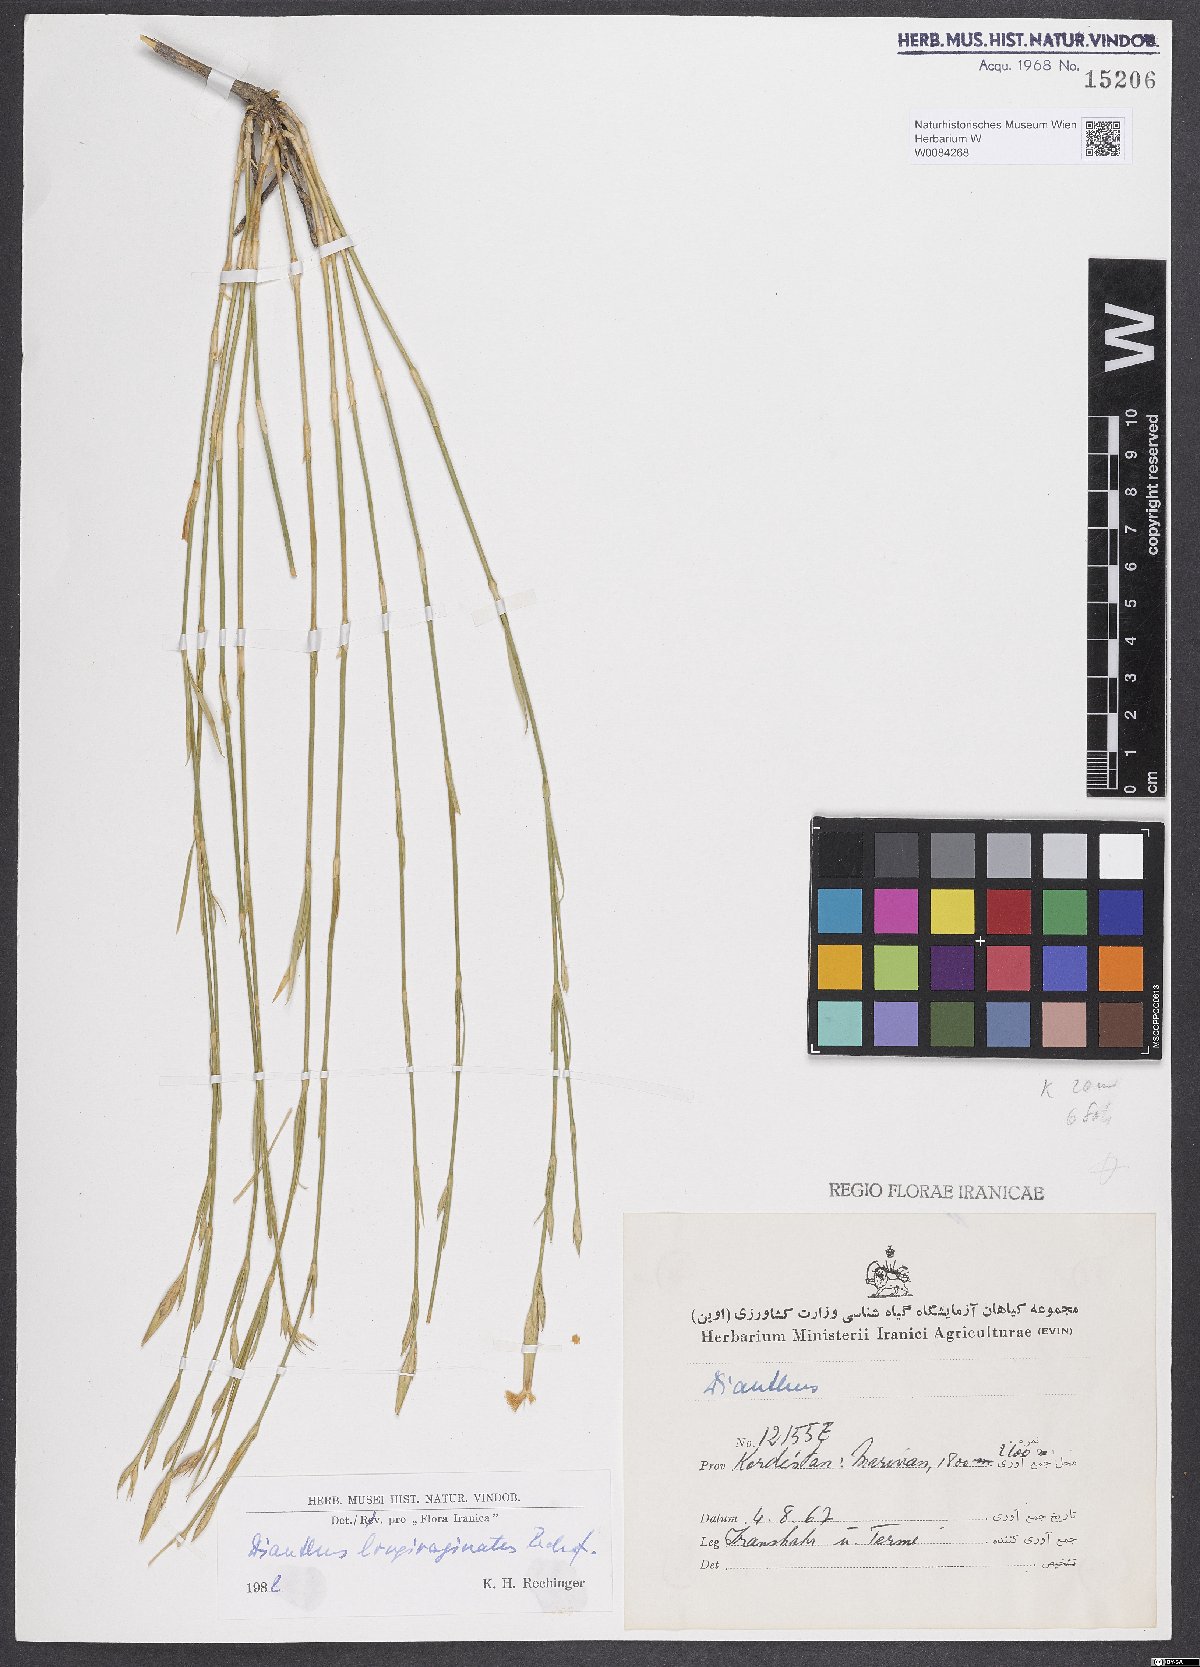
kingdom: Plantae
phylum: Tracheophyta
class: Magnoliopsida
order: Caryophyllales
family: Caryophyllaceae
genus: Dianthus
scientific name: Dianthus longivaginatus
